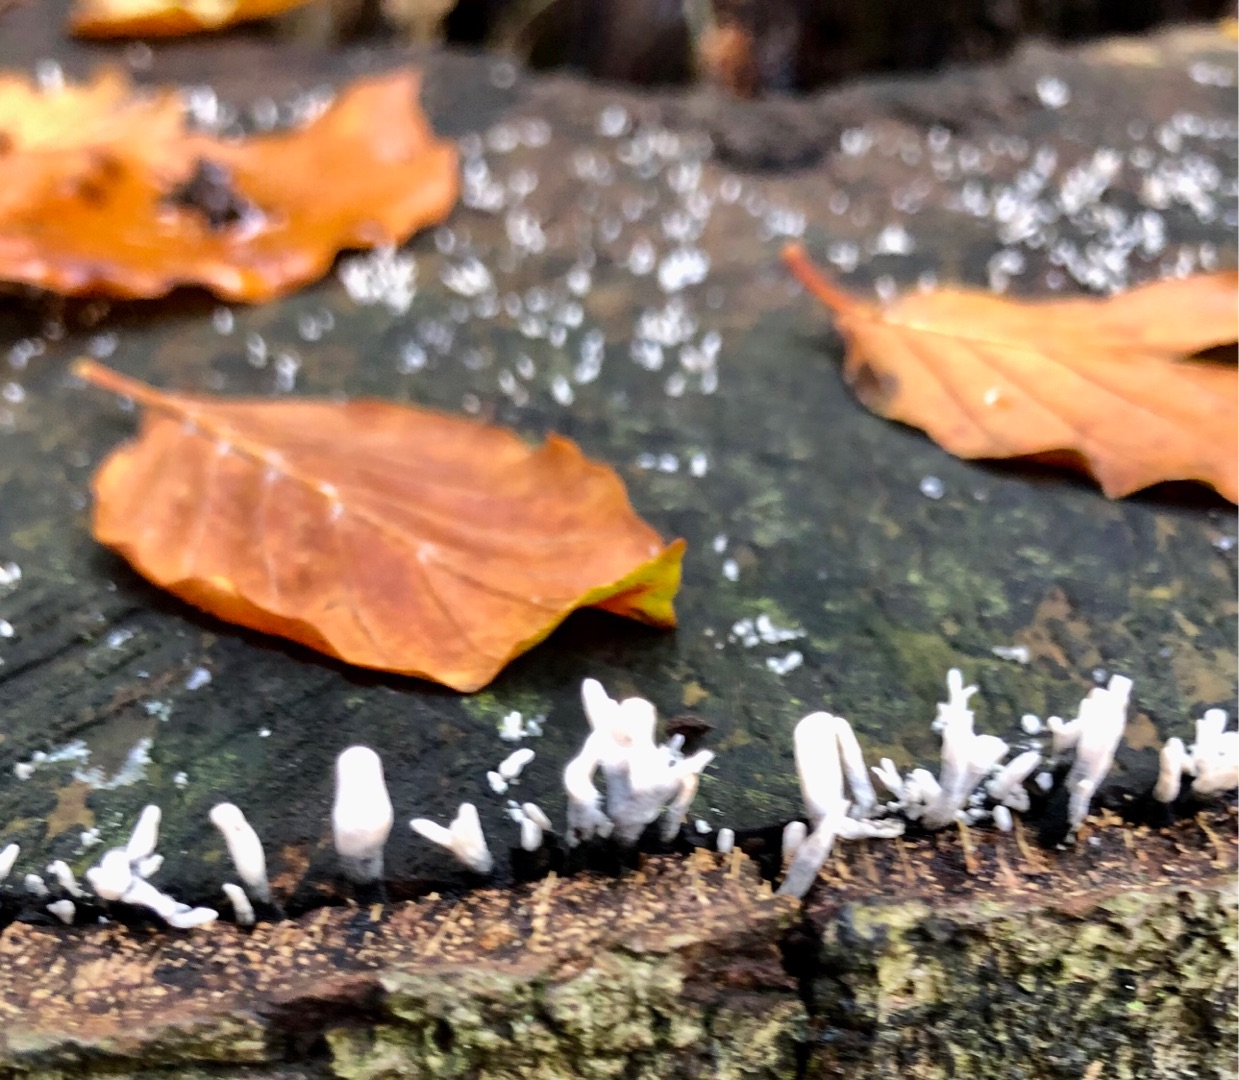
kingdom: Fungi
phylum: Ascomycota
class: Sordariomycetes
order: Xylariales
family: Xylariaceae
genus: Xylaria
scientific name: Xylaria hypoxylon
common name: Grenet stødsvamp
